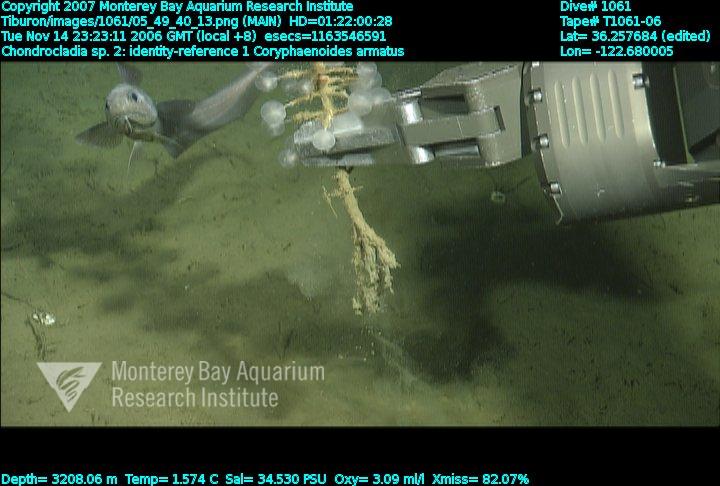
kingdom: Animalia
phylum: Porifera
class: Demospongiae
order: Poecilosclerida
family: Cladorhizidae
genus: Chondrocladia
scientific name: Chondrocladia
